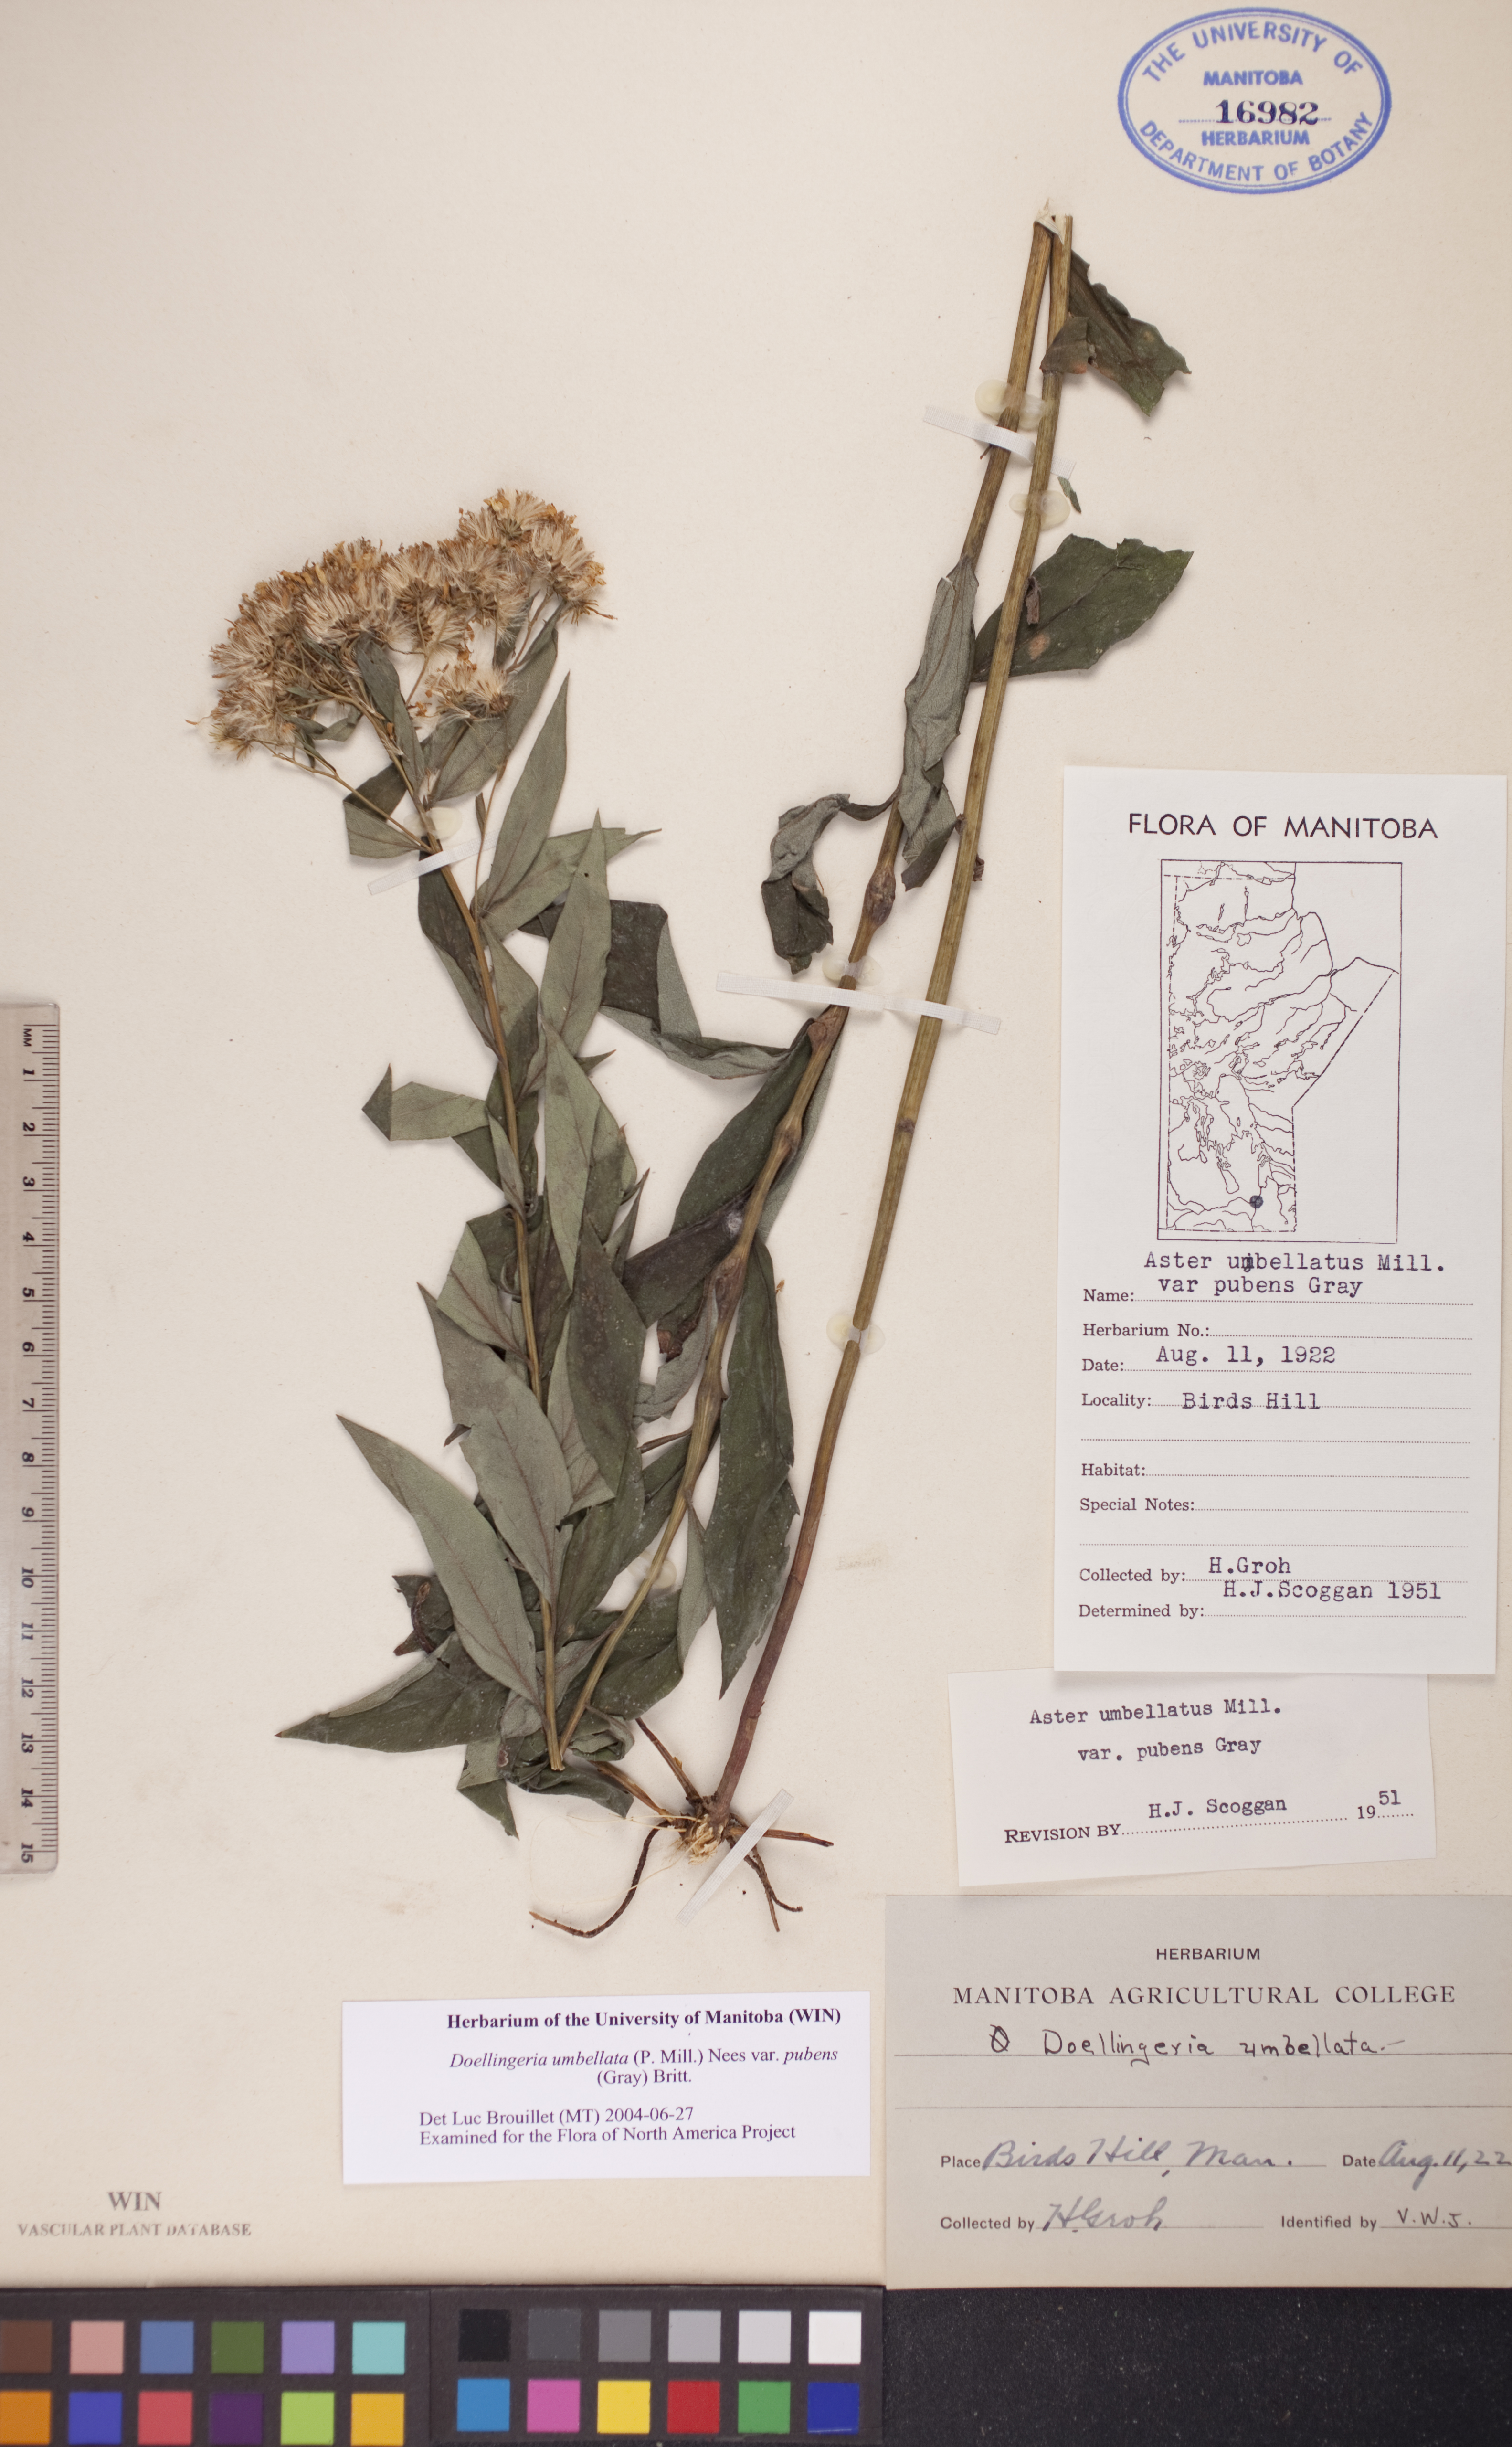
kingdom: Plantae
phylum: Tracheophyta
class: Magnoliopsida
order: Asterales
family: Asteraceae
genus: Doellingeria
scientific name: Doellingeria umbellata
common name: Flat-top white aster
